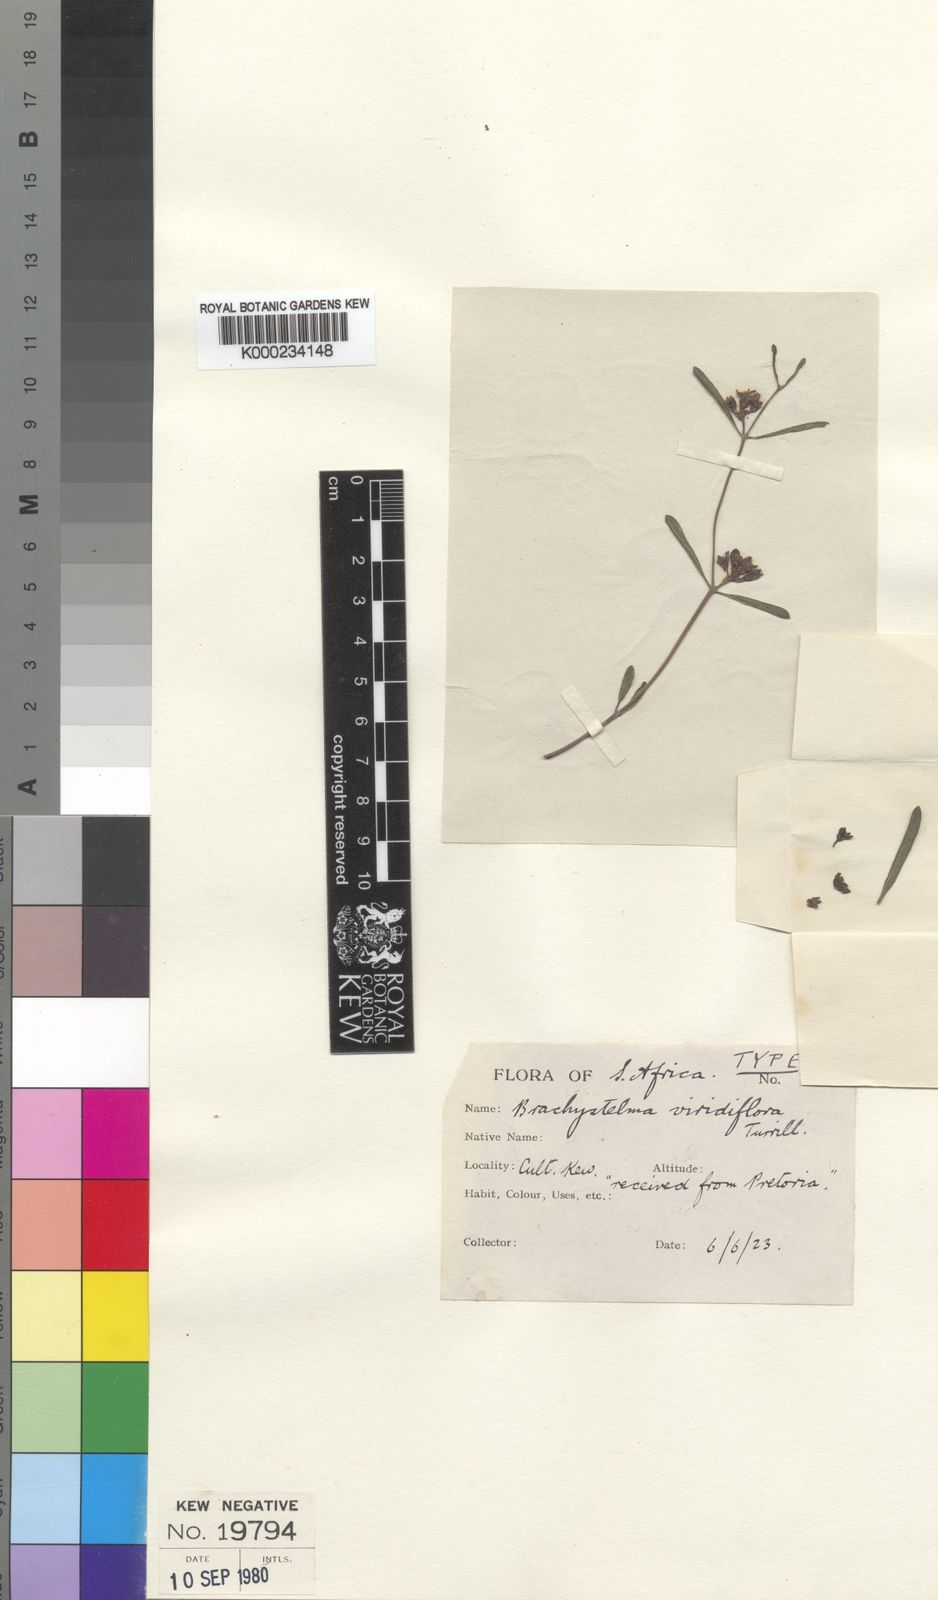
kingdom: Plantae
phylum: Tracheophyta
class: Magnoliopsida
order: Gentianales
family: Apocynaceae
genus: Raphionacme
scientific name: Raphionacme velutina
